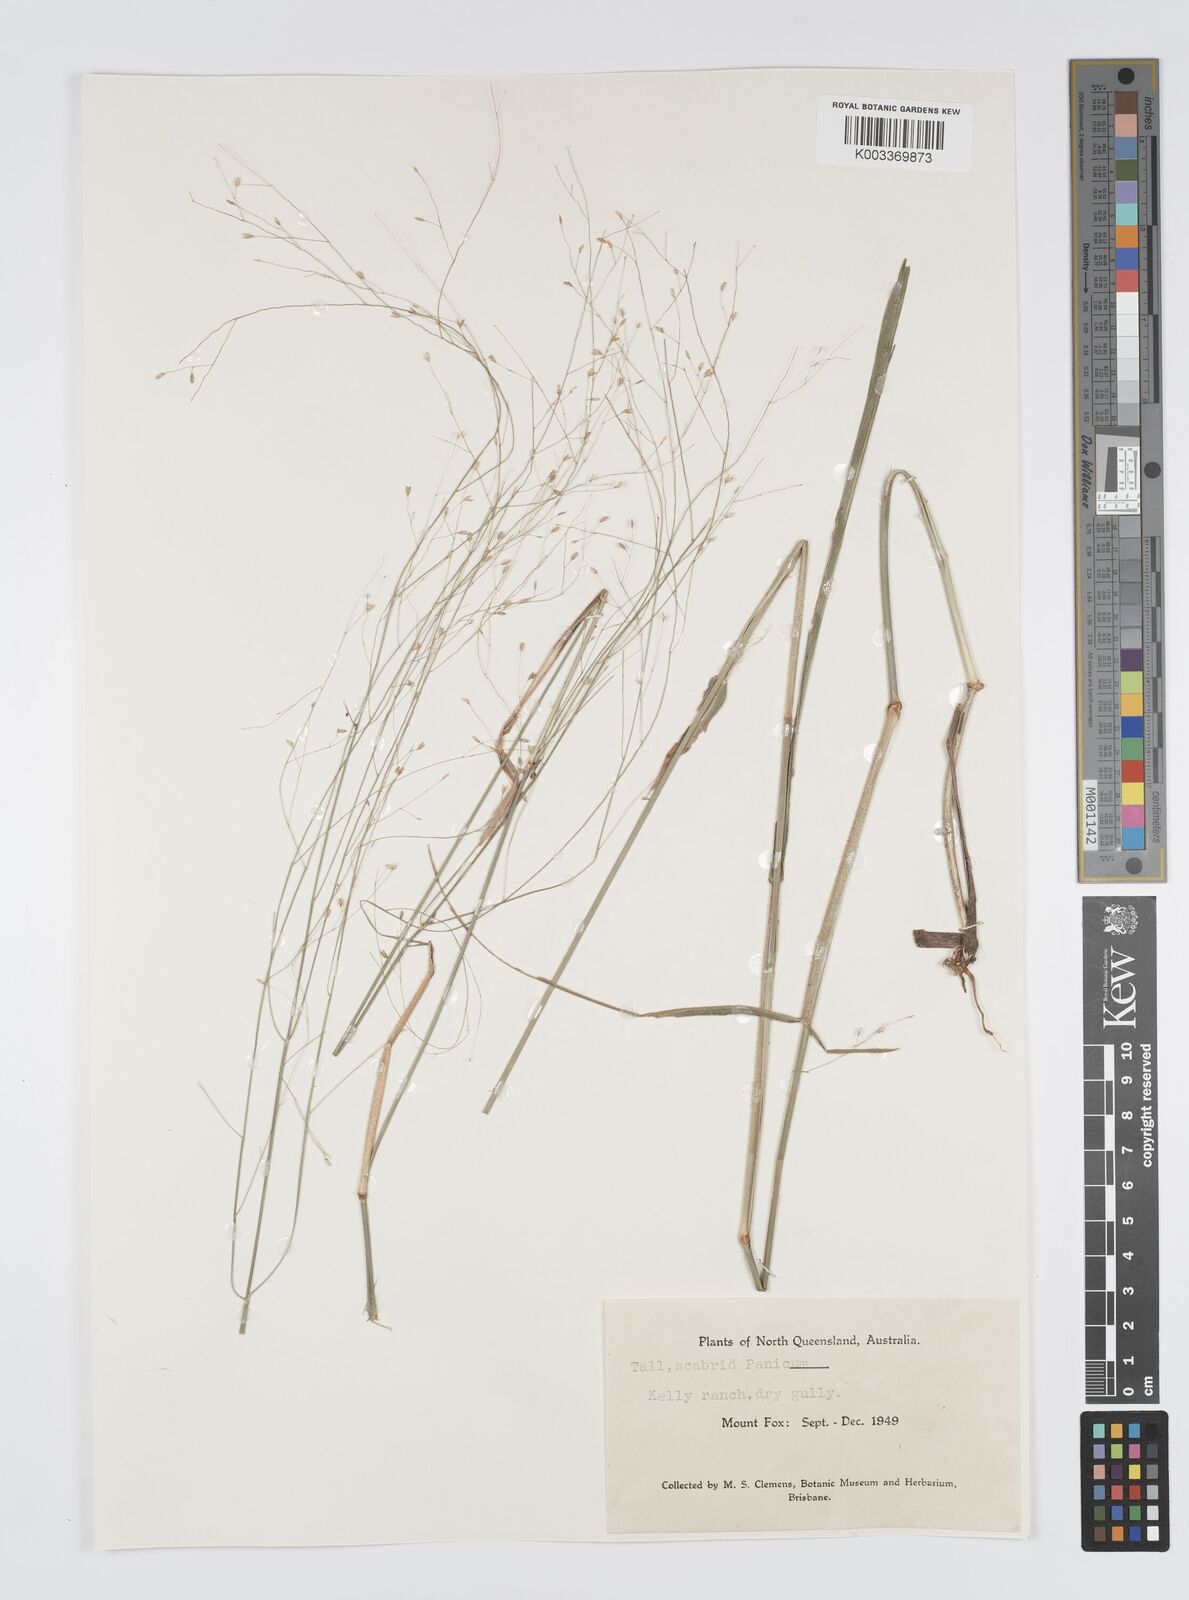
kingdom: Plantae
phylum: Tracheophyta
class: Liliopsida
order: Poales
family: Poaceae
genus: Panicum
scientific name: Panicum mitchellii
